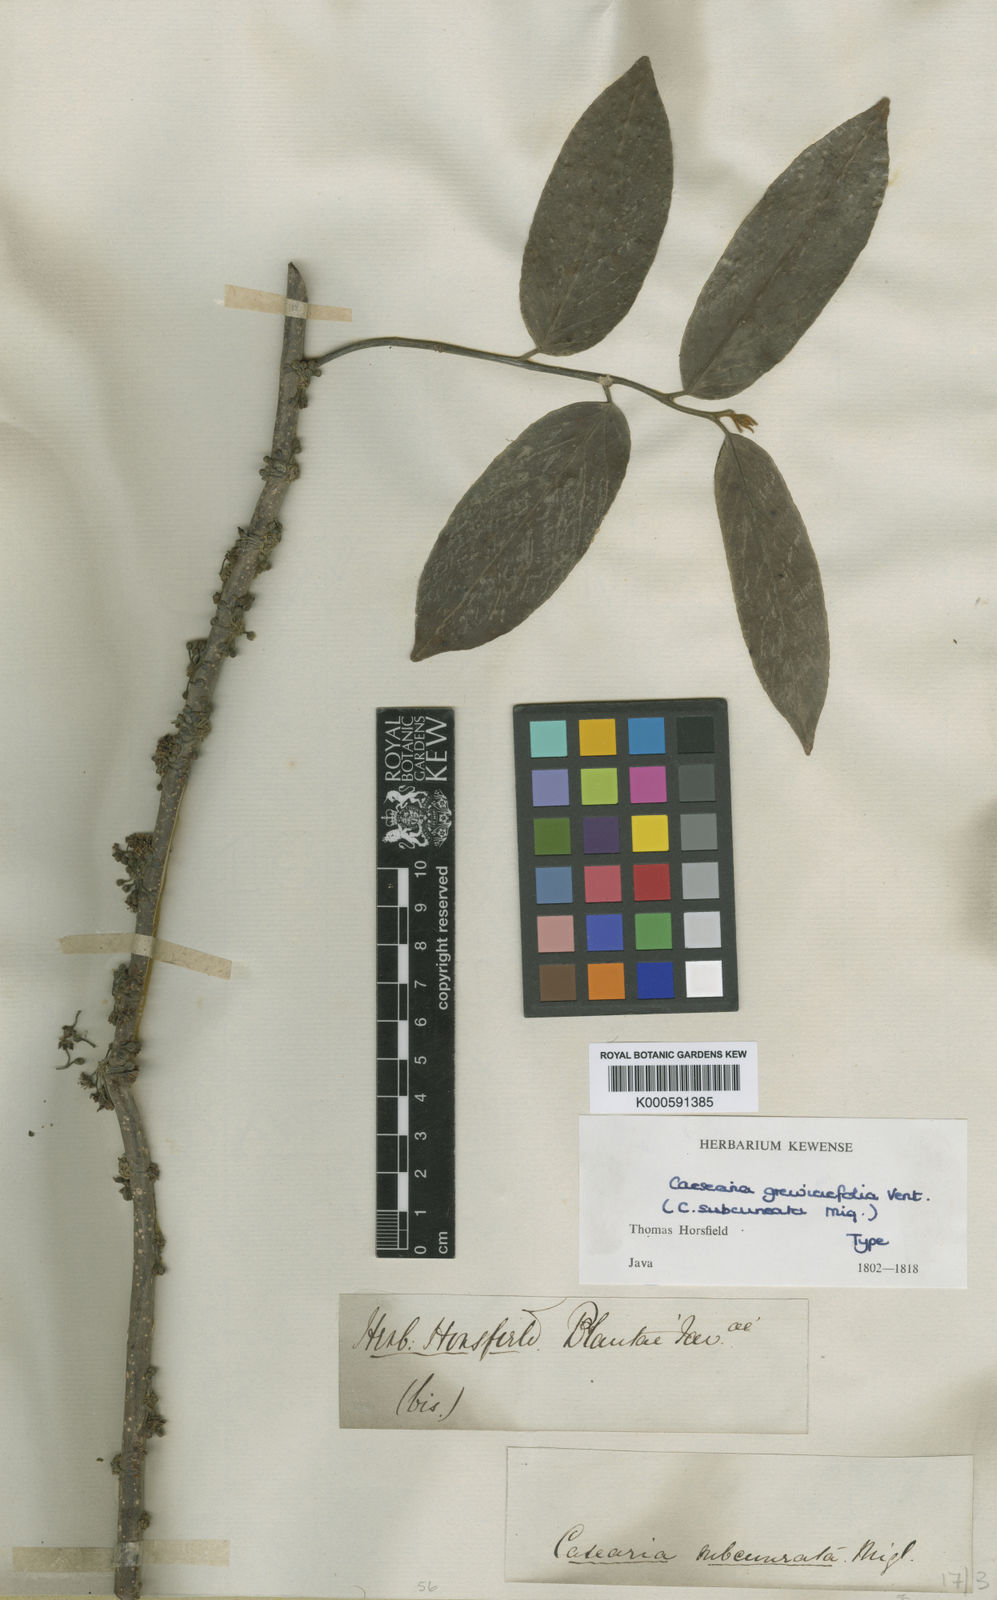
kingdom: Plantae
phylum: Tracheophyta
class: Magnoliopsida
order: Malpighiales
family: Salicaceae
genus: Casearia
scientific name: Casearia grewiifolia
